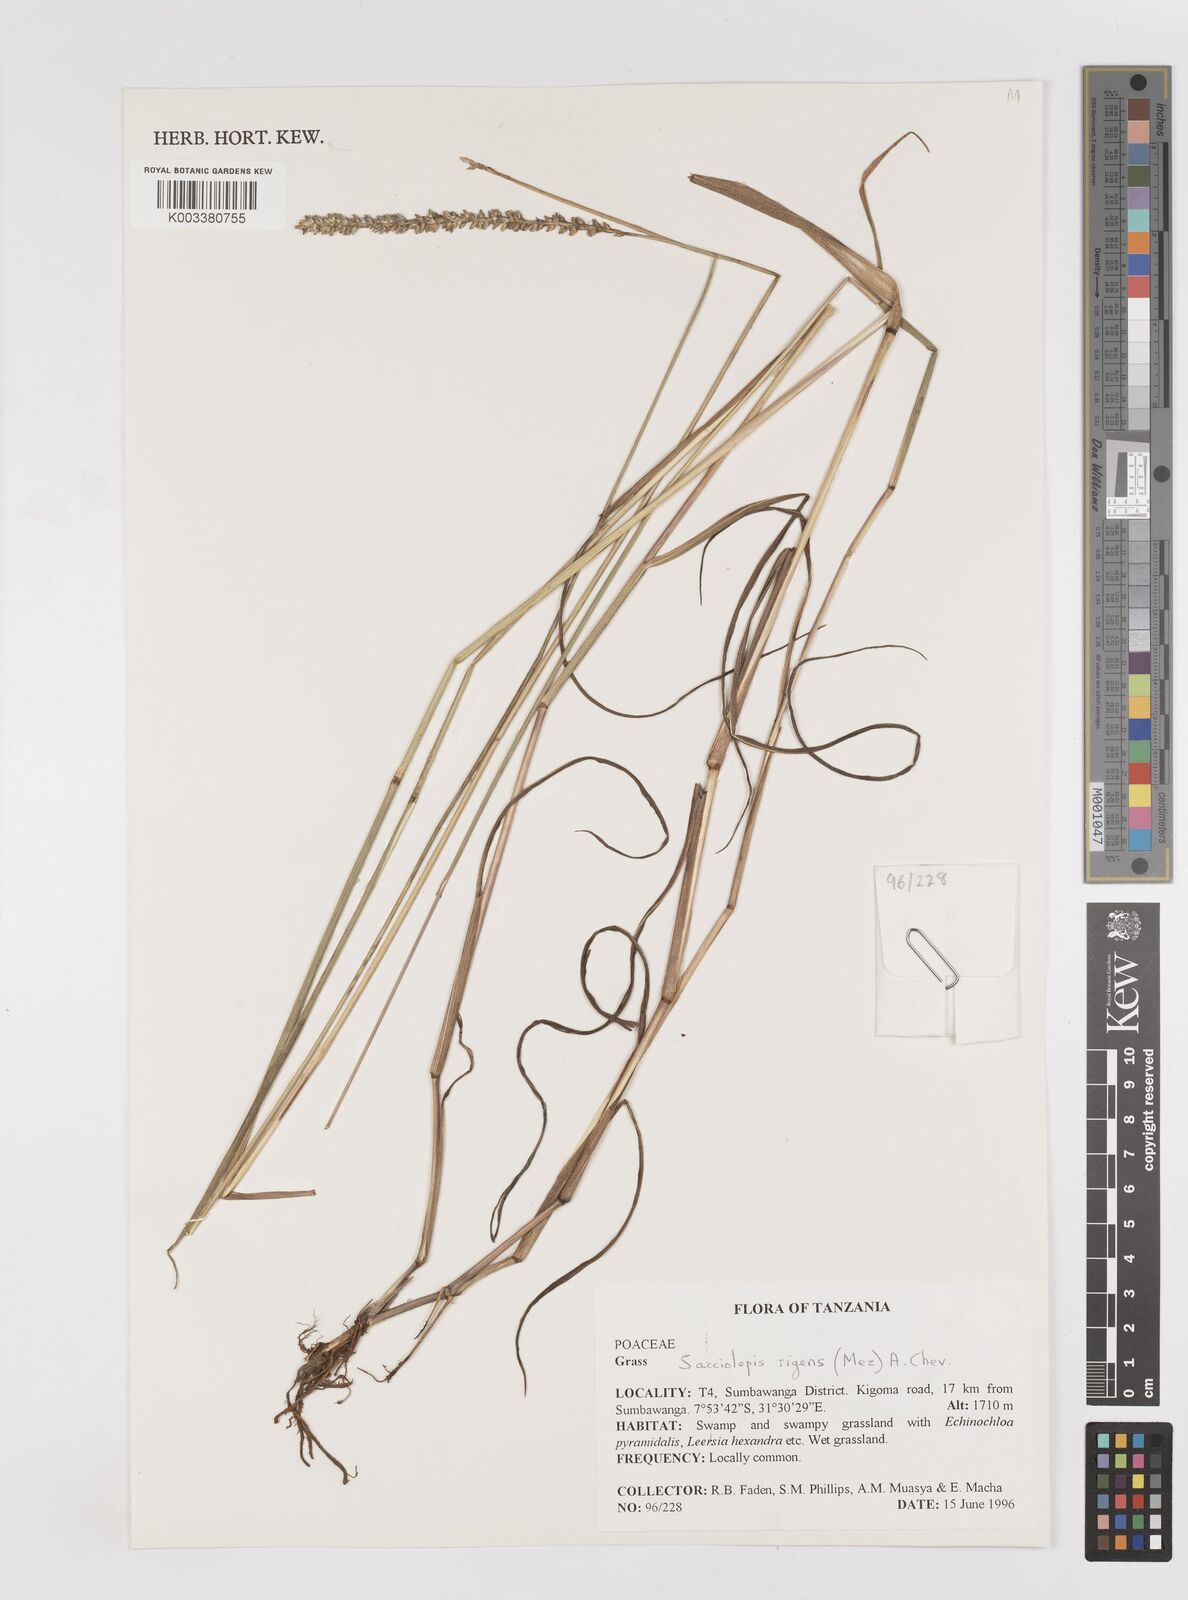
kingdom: Plantae
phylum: Tracheophyta
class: Liliopsida
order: Poales
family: Poaceae
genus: Sacciolepis
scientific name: Sacciolepis leptorrhachis
